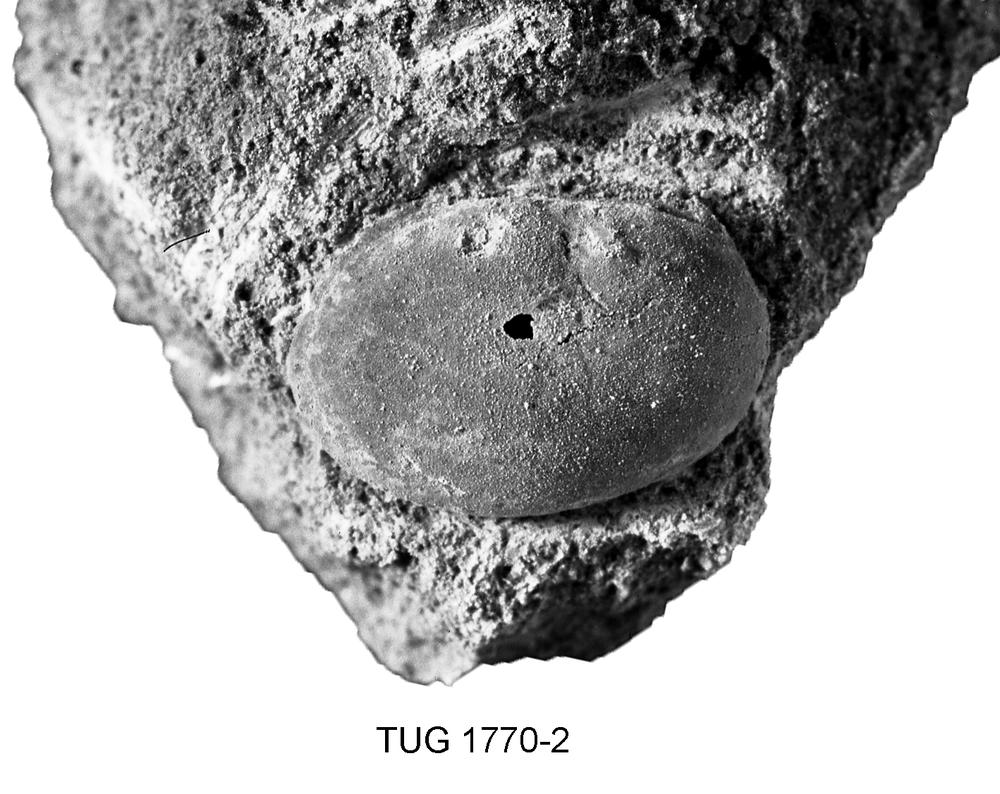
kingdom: Animalia
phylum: Arthropoda
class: Ostracoda
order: Platycopida
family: Leperditiidae
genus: Leperditia
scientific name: Leperditia
